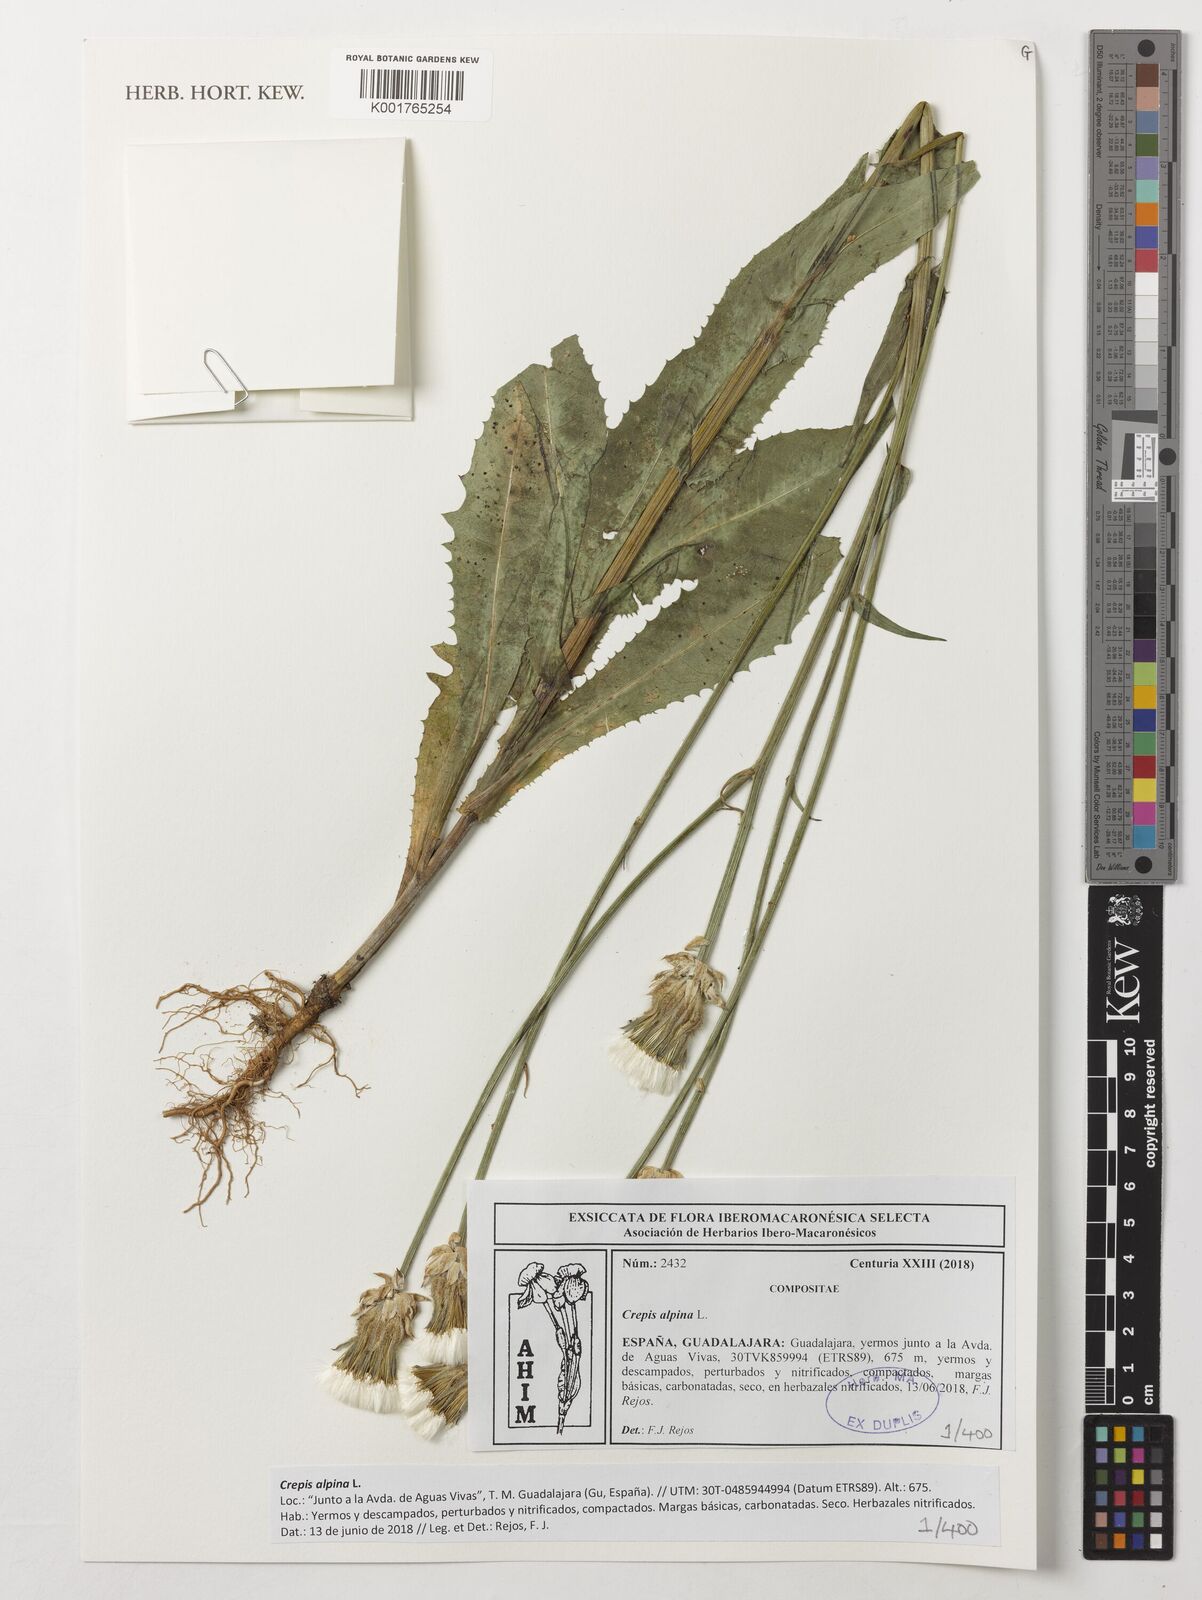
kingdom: Plantae
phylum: Tracheophyta
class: Magnoliopsida
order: Asterales
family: Asteraceae
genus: Crepis
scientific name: Crepis alpina
